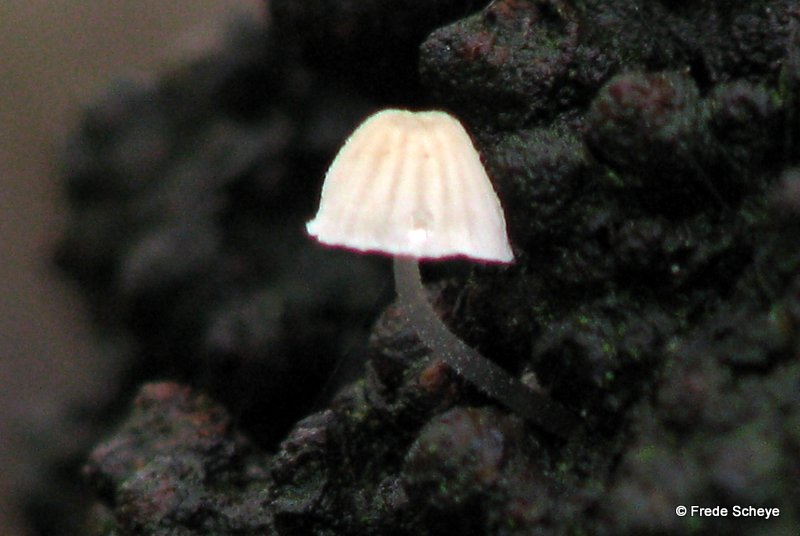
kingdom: Fungi
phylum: Basidiomycota
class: Agaricomycetes
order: Agaricales
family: Mycenaceae
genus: Mycena
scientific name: Mycena tenerrima
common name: pudret huesvamp
